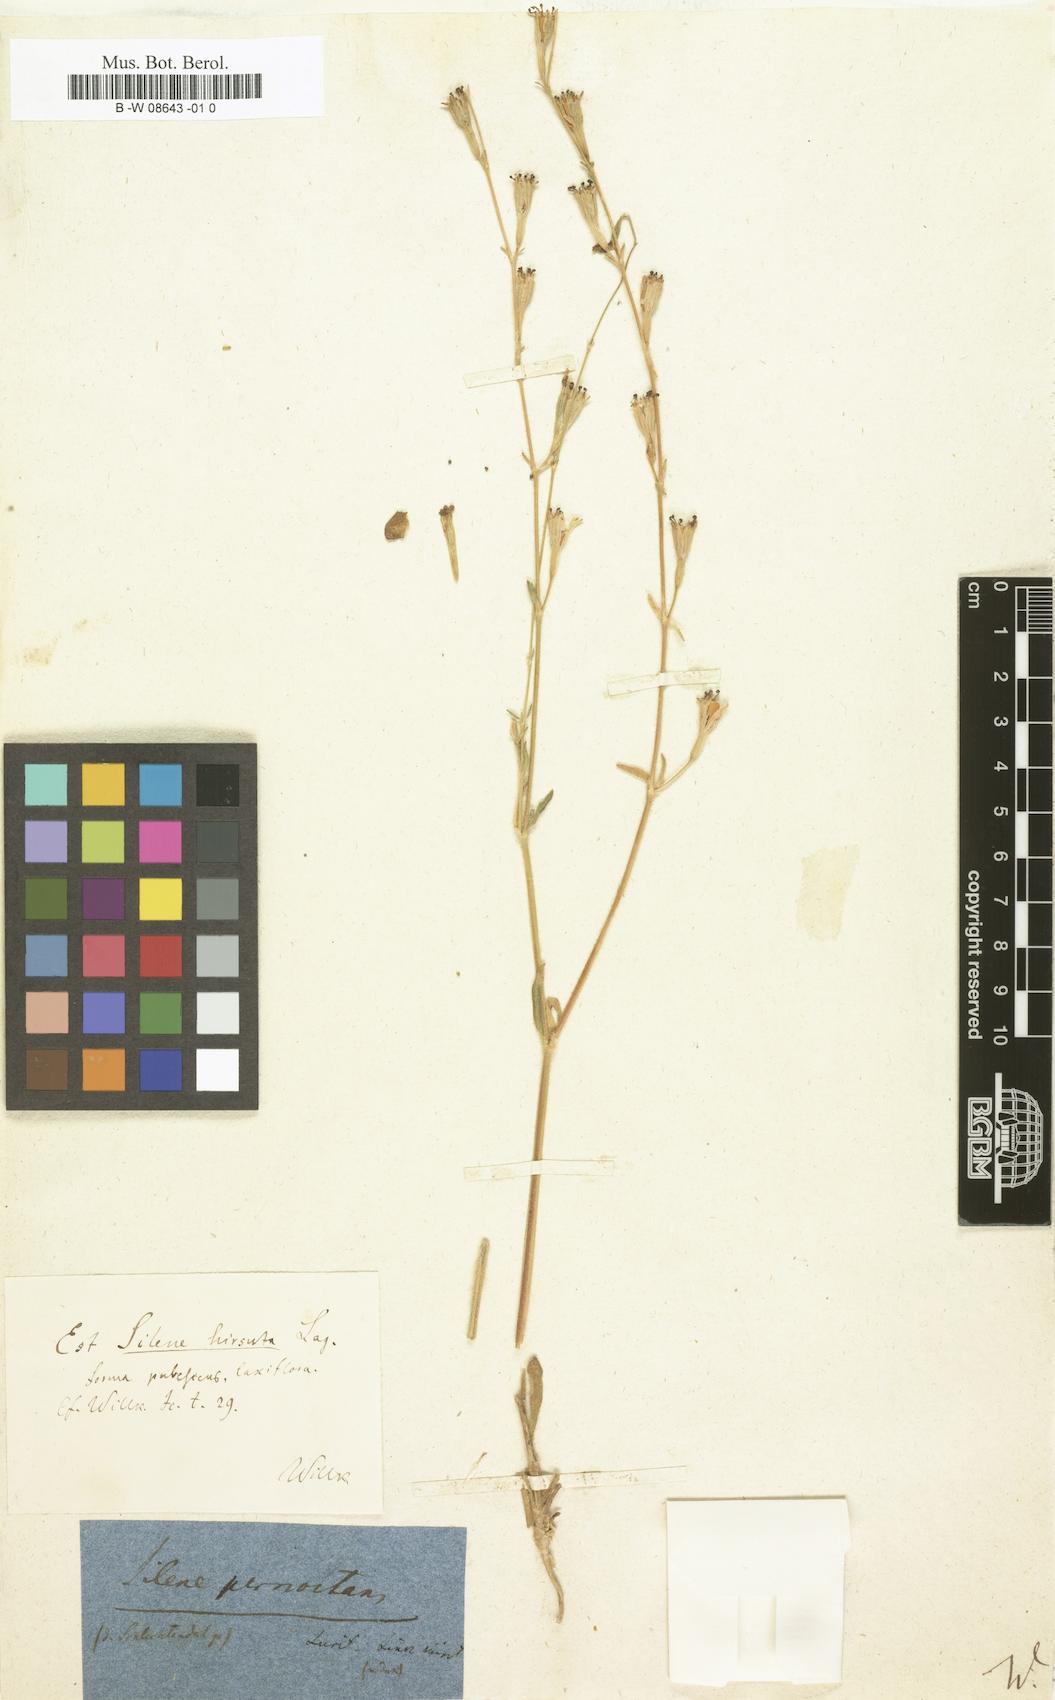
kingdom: Plantae
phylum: Tracheophyta
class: Magnoliopsida
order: Caryophyllales
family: Caryophyllaceae
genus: Silene
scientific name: Silene
